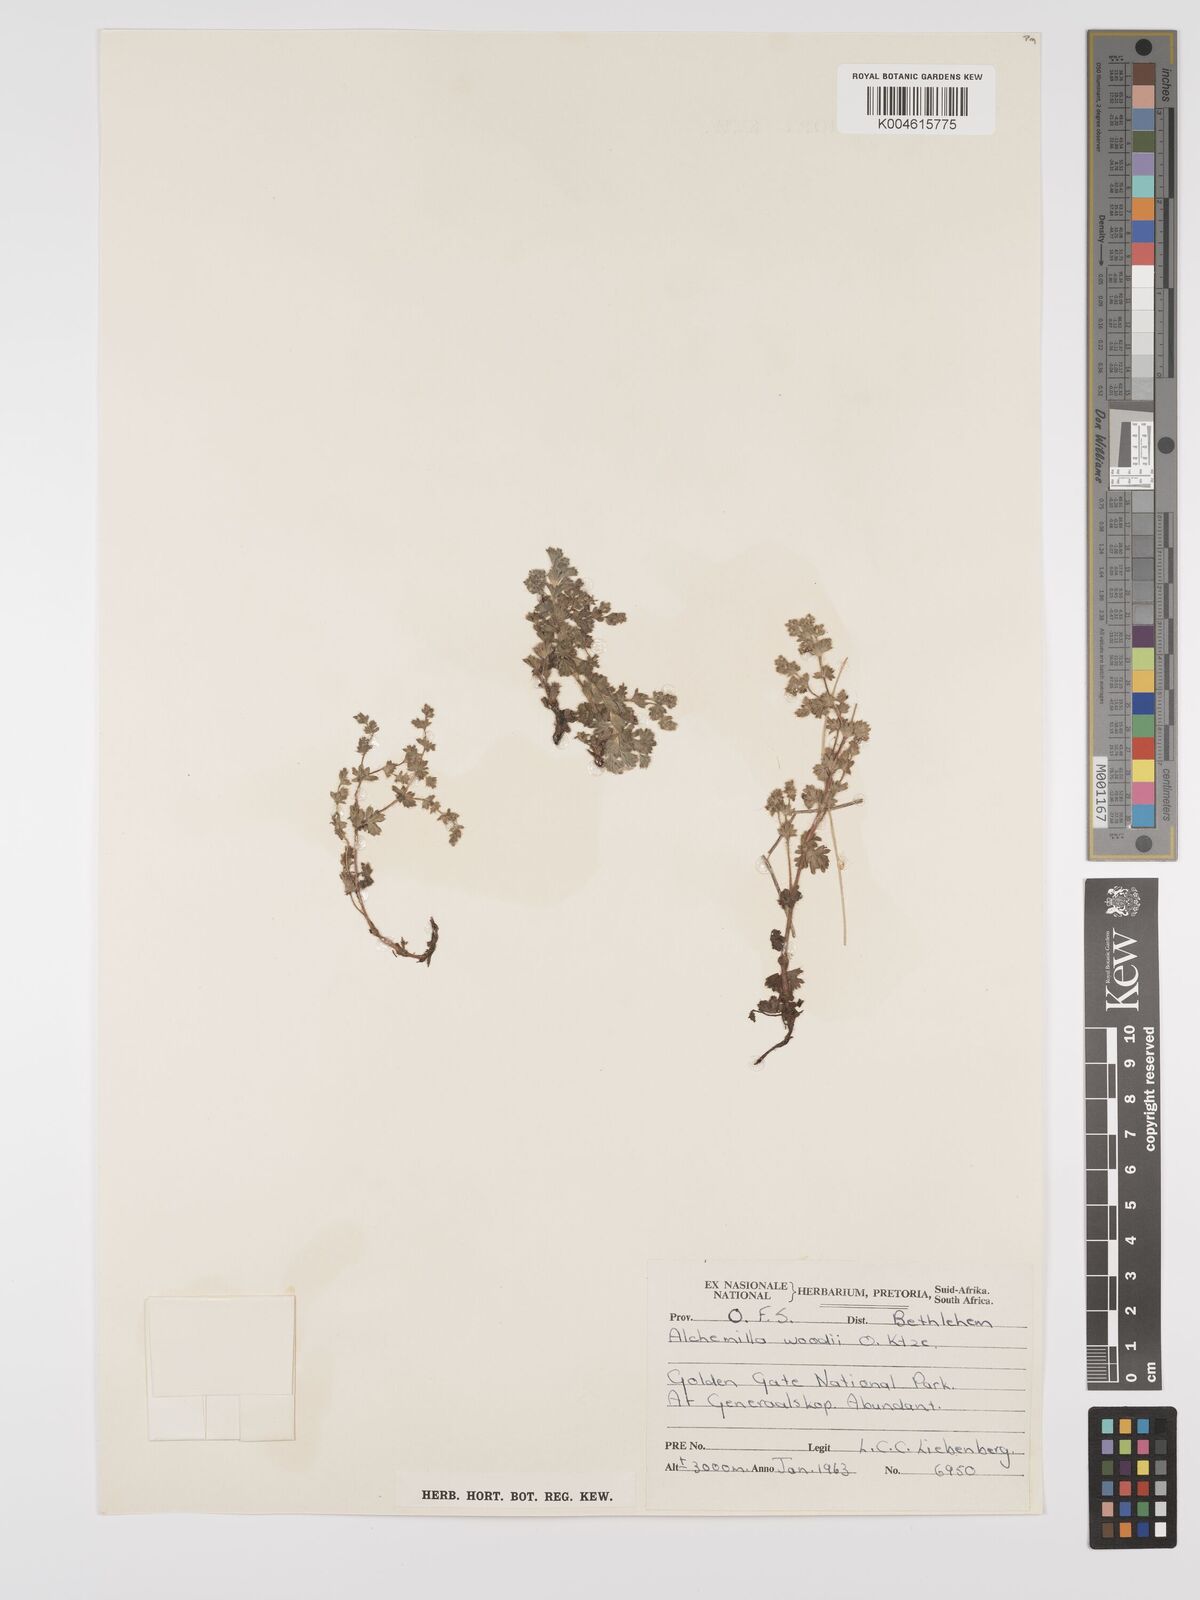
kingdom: Plantae
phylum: Tracheophyta
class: Magnoliopsida
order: Rosales
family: Rosaceae
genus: Alchemilla
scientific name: Alchemilla woodii
